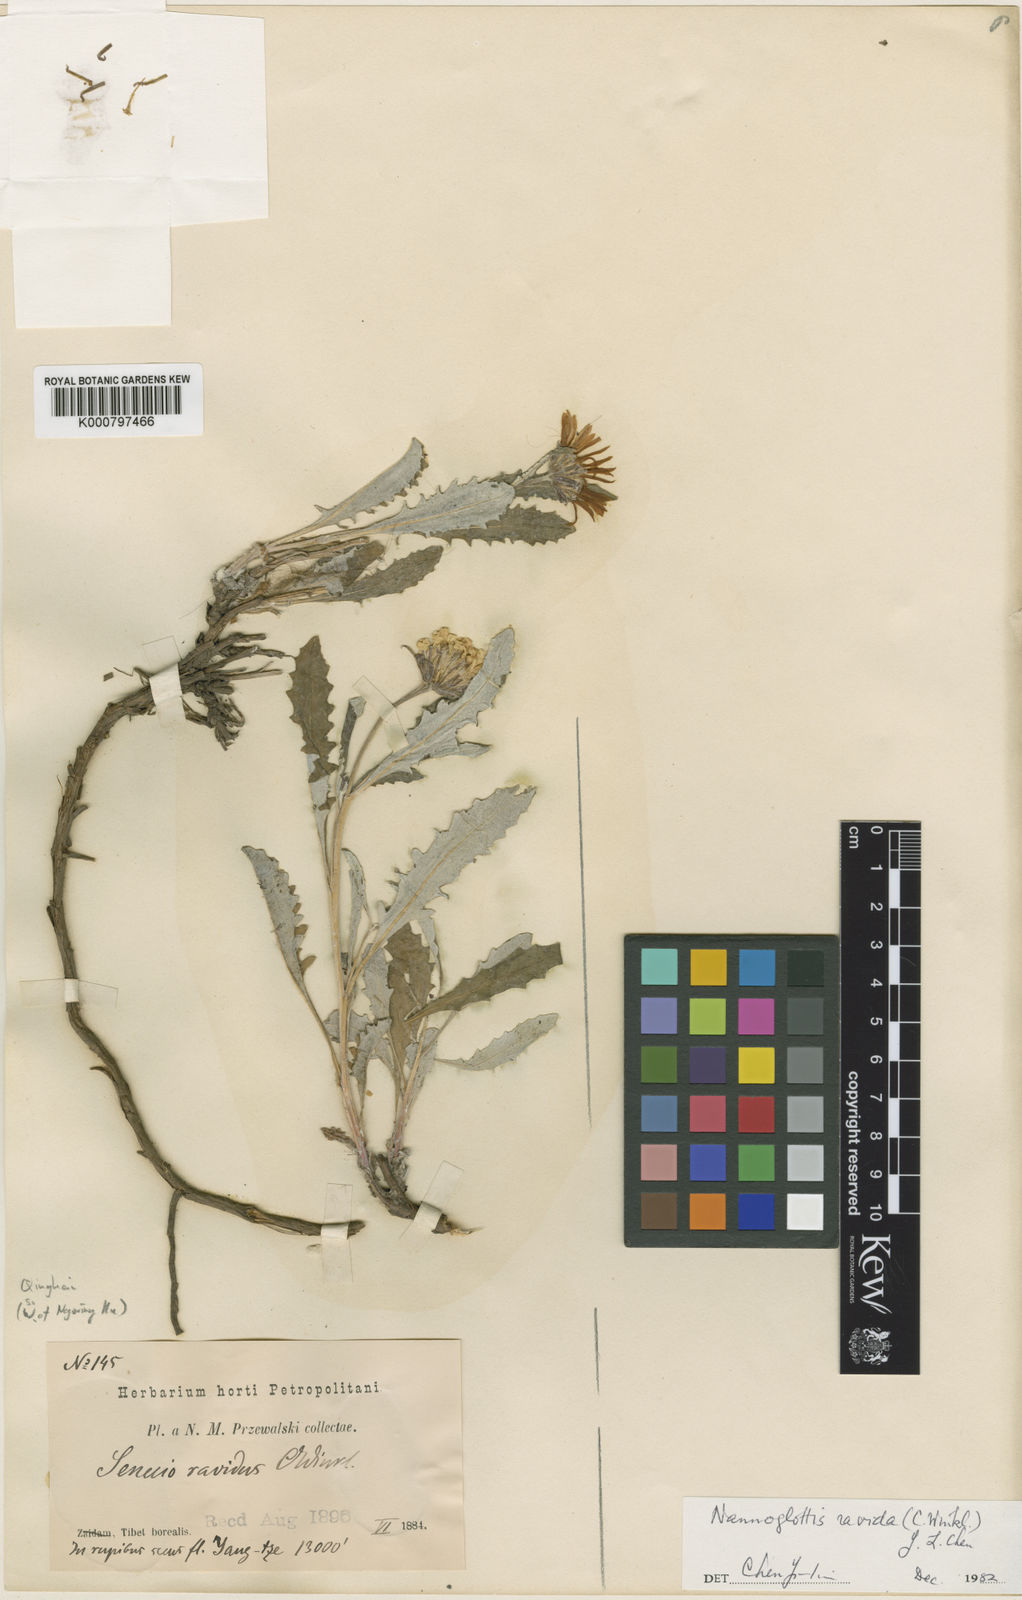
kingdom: Plantae
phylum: Tracheophyta
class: Magnoliopsida
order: Asterales
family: Asteraceae
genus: Nannoglottis
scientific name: Nannoglottis ravida
